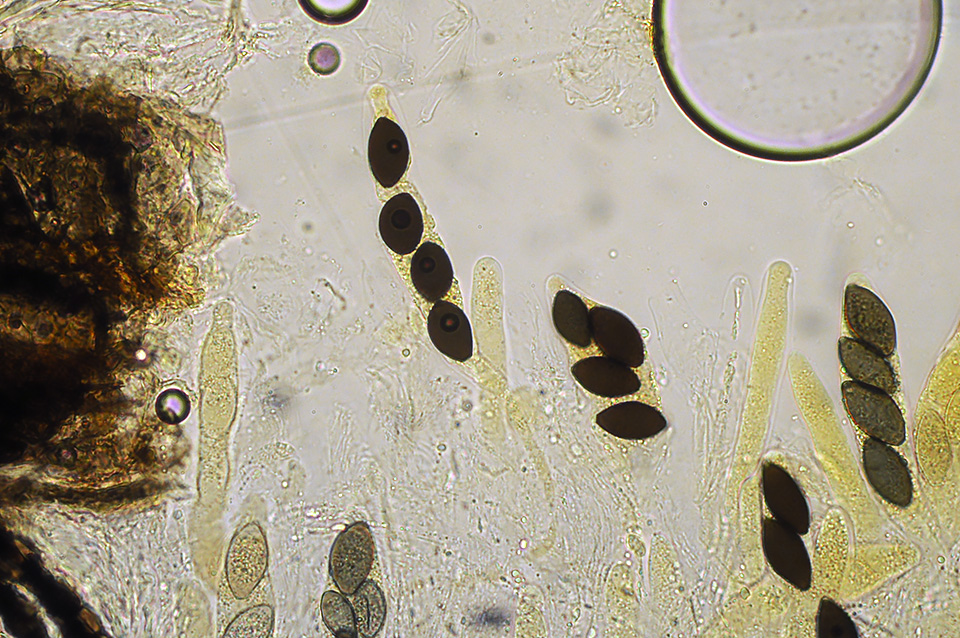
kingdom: Fungi
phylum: Ascomycota
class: Sordariomycetes
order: Sordariales
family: Neoschizotheciaceae
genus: Neoschizothecium
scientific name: Neoschizothecium tetrasporum
